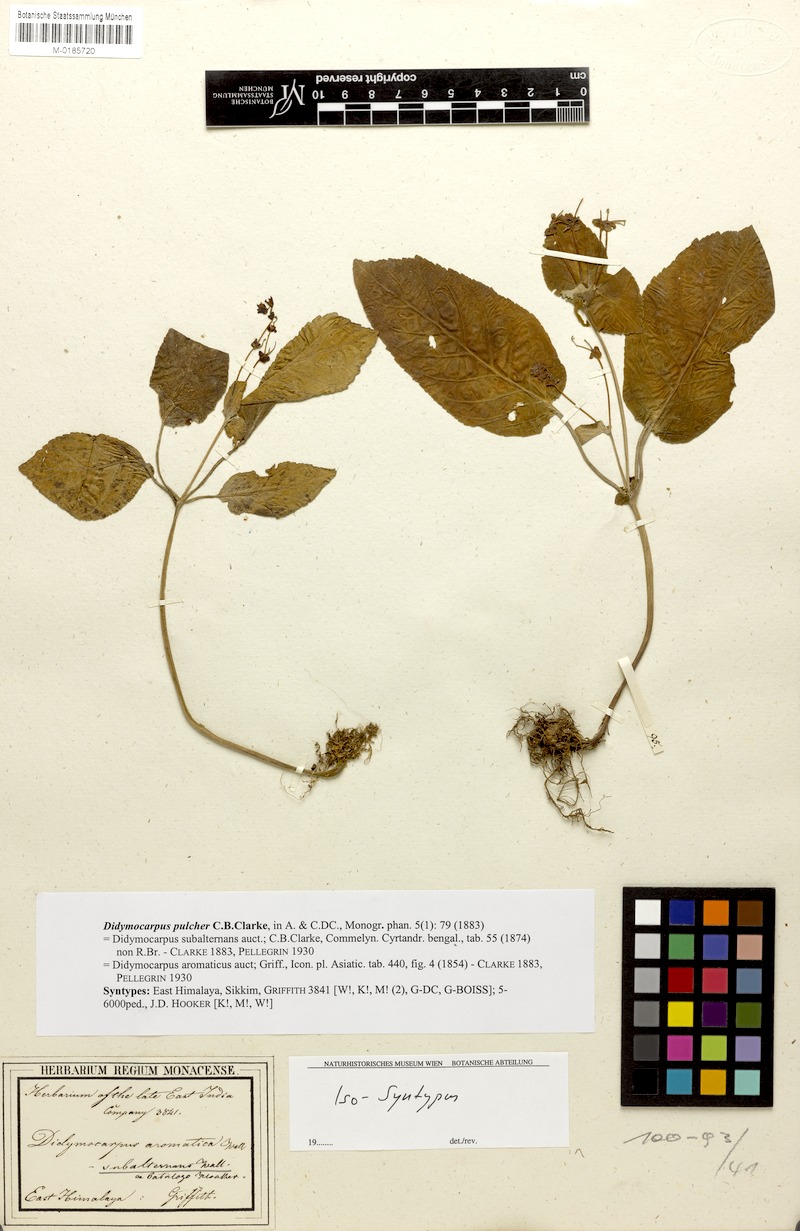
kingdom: Plantae
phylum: Tracheophyta
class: Magnoliopsida
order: Lamiales
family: Gesneriaceae
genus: Didymocarpus
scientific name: Didymocarpus punduanus
